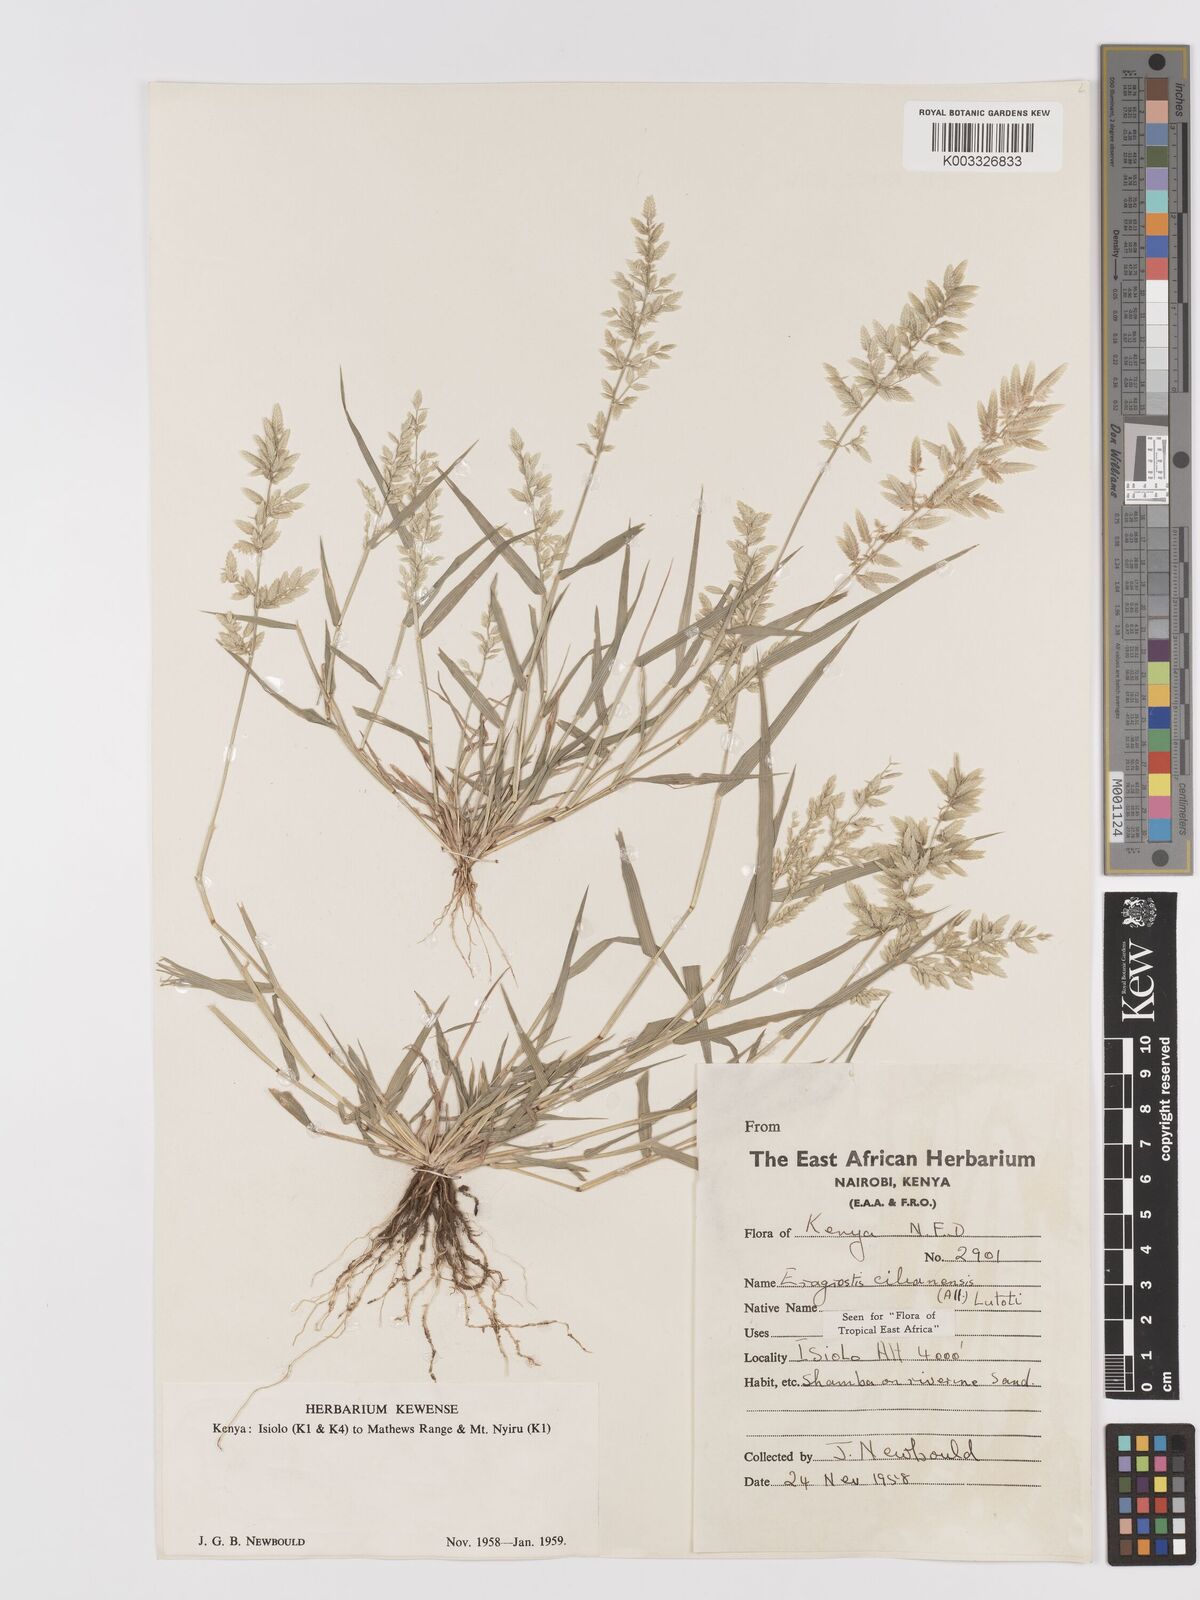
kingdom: Plantae
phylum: Tracheophyta
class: Liliopsida
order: Poales
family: Poaceae
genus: Eragrostis
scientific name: Eragrostis cilianensis
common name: Stinkgrass
